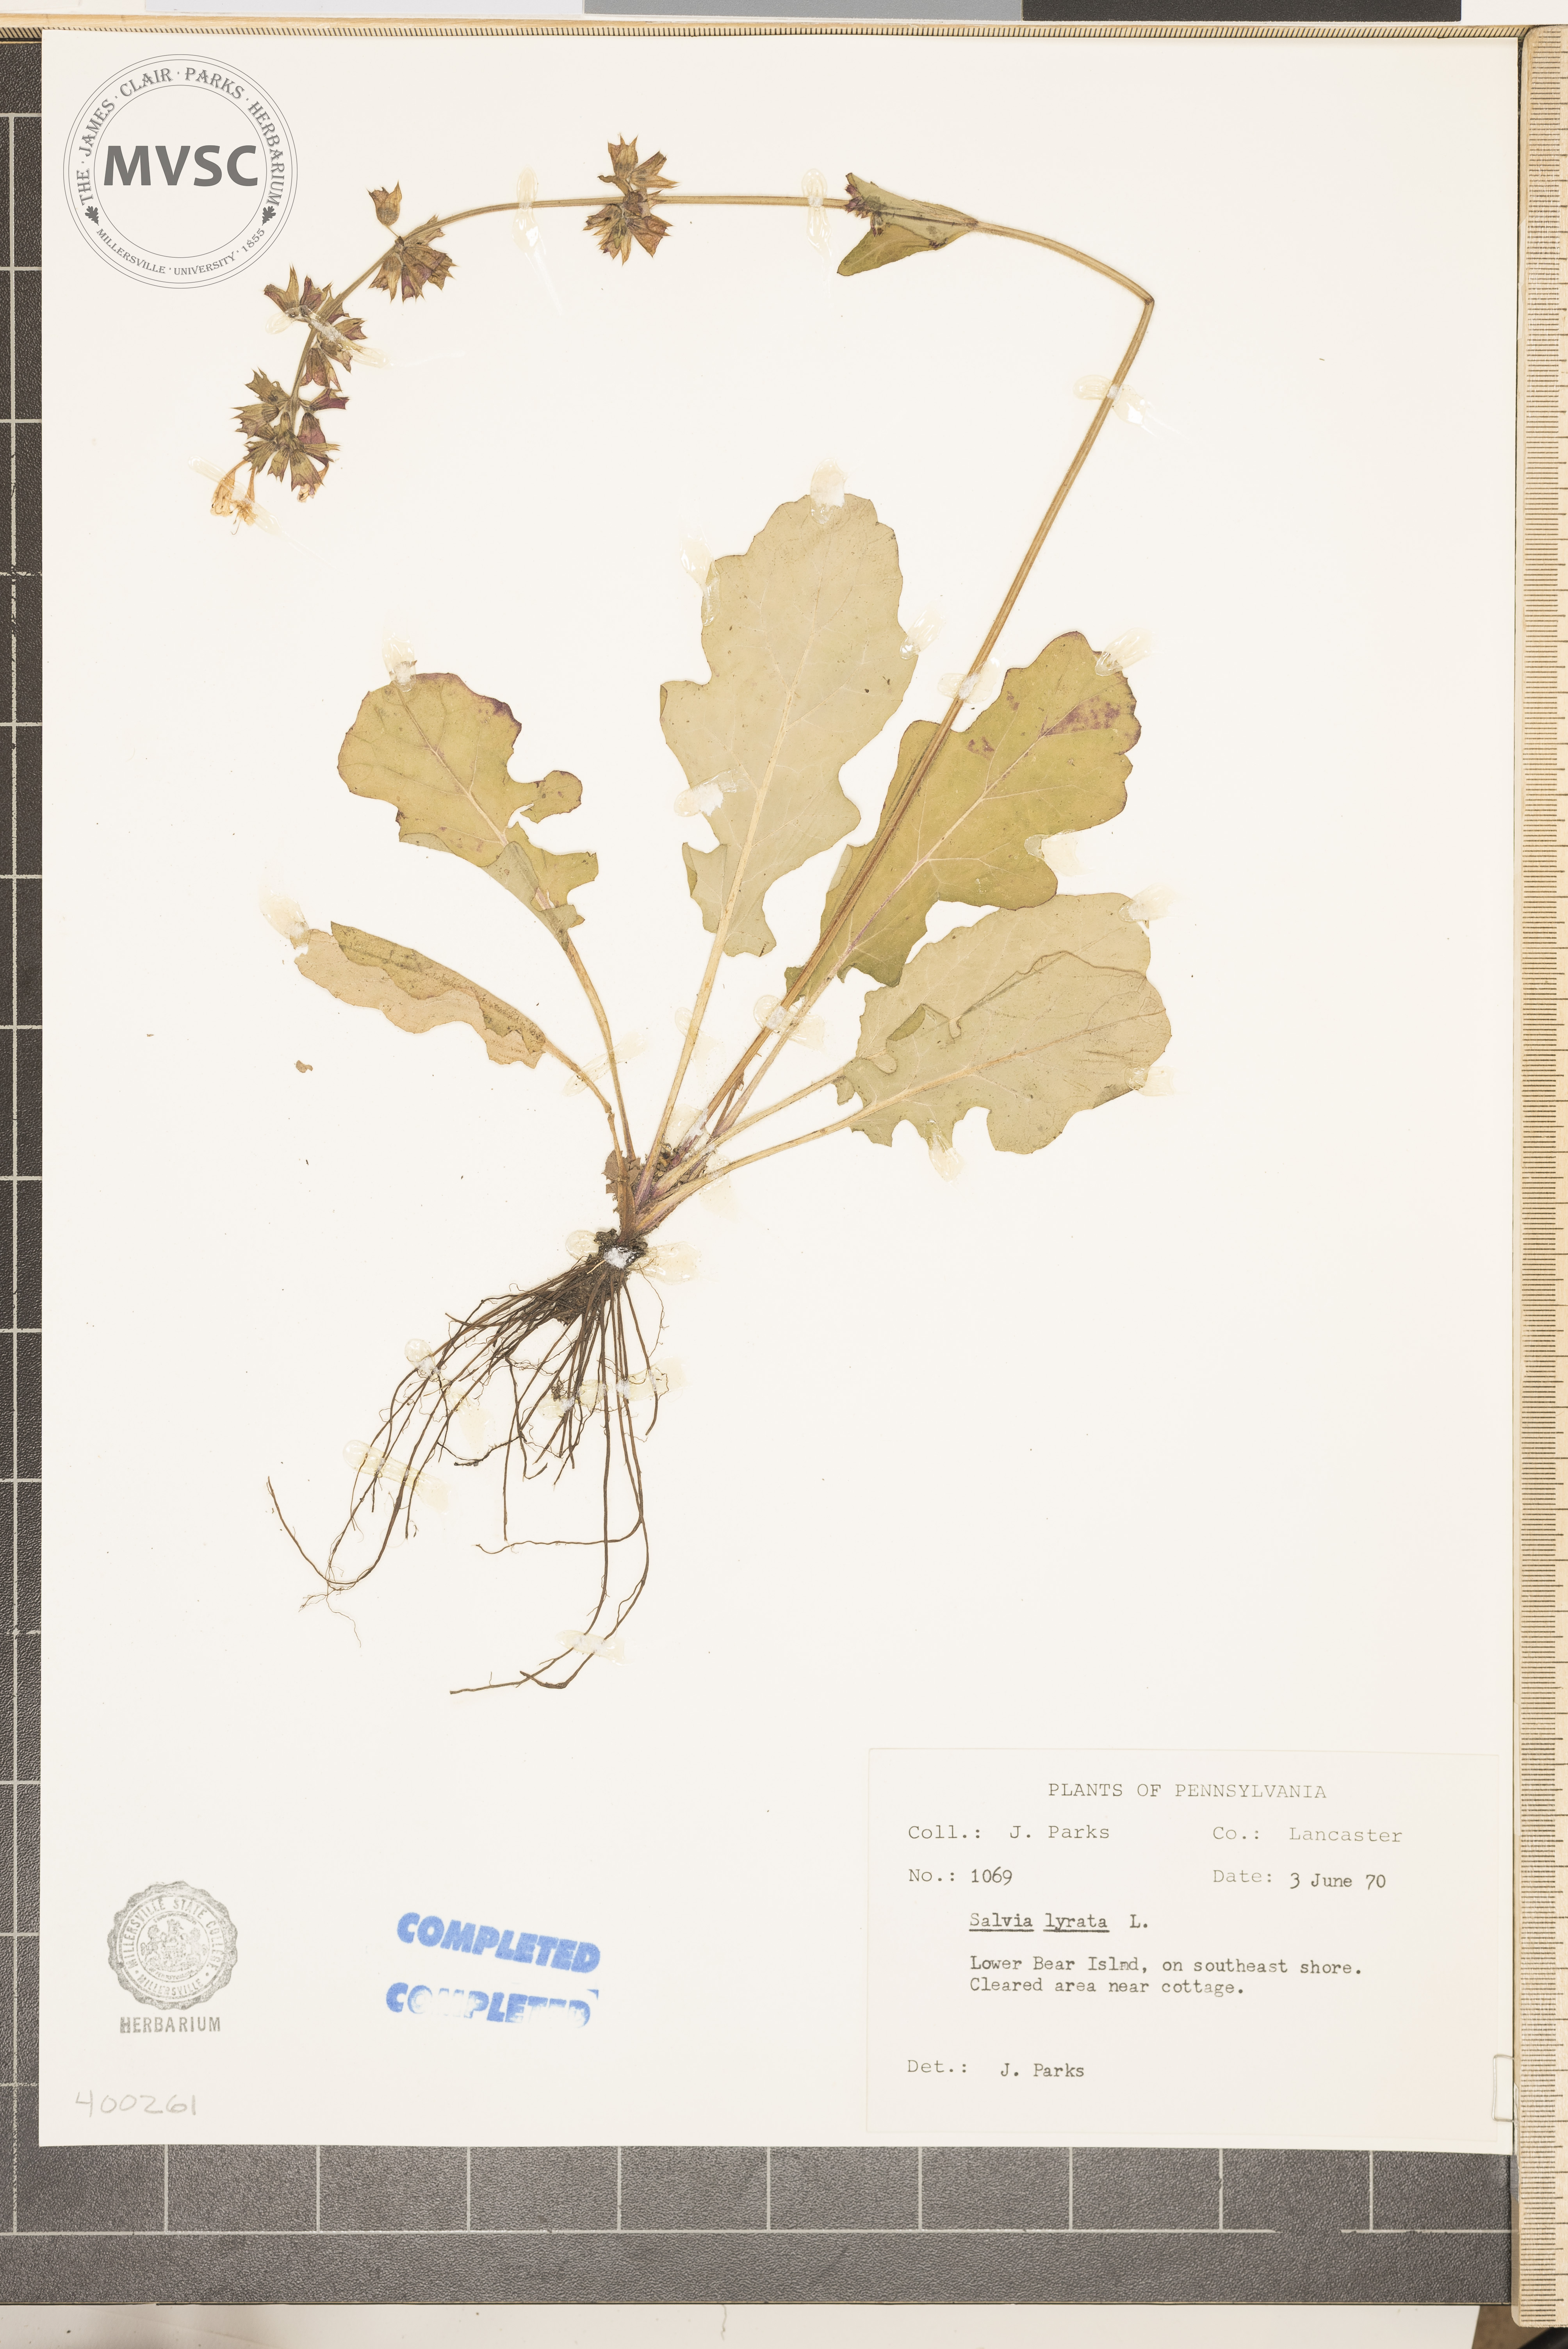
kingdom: Plantae
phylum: Tracheophyta
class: Magnoliopsida
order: Lamiales
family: Lamiaceae
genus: Salvia
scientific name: Salvia lyrata
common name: salvia
